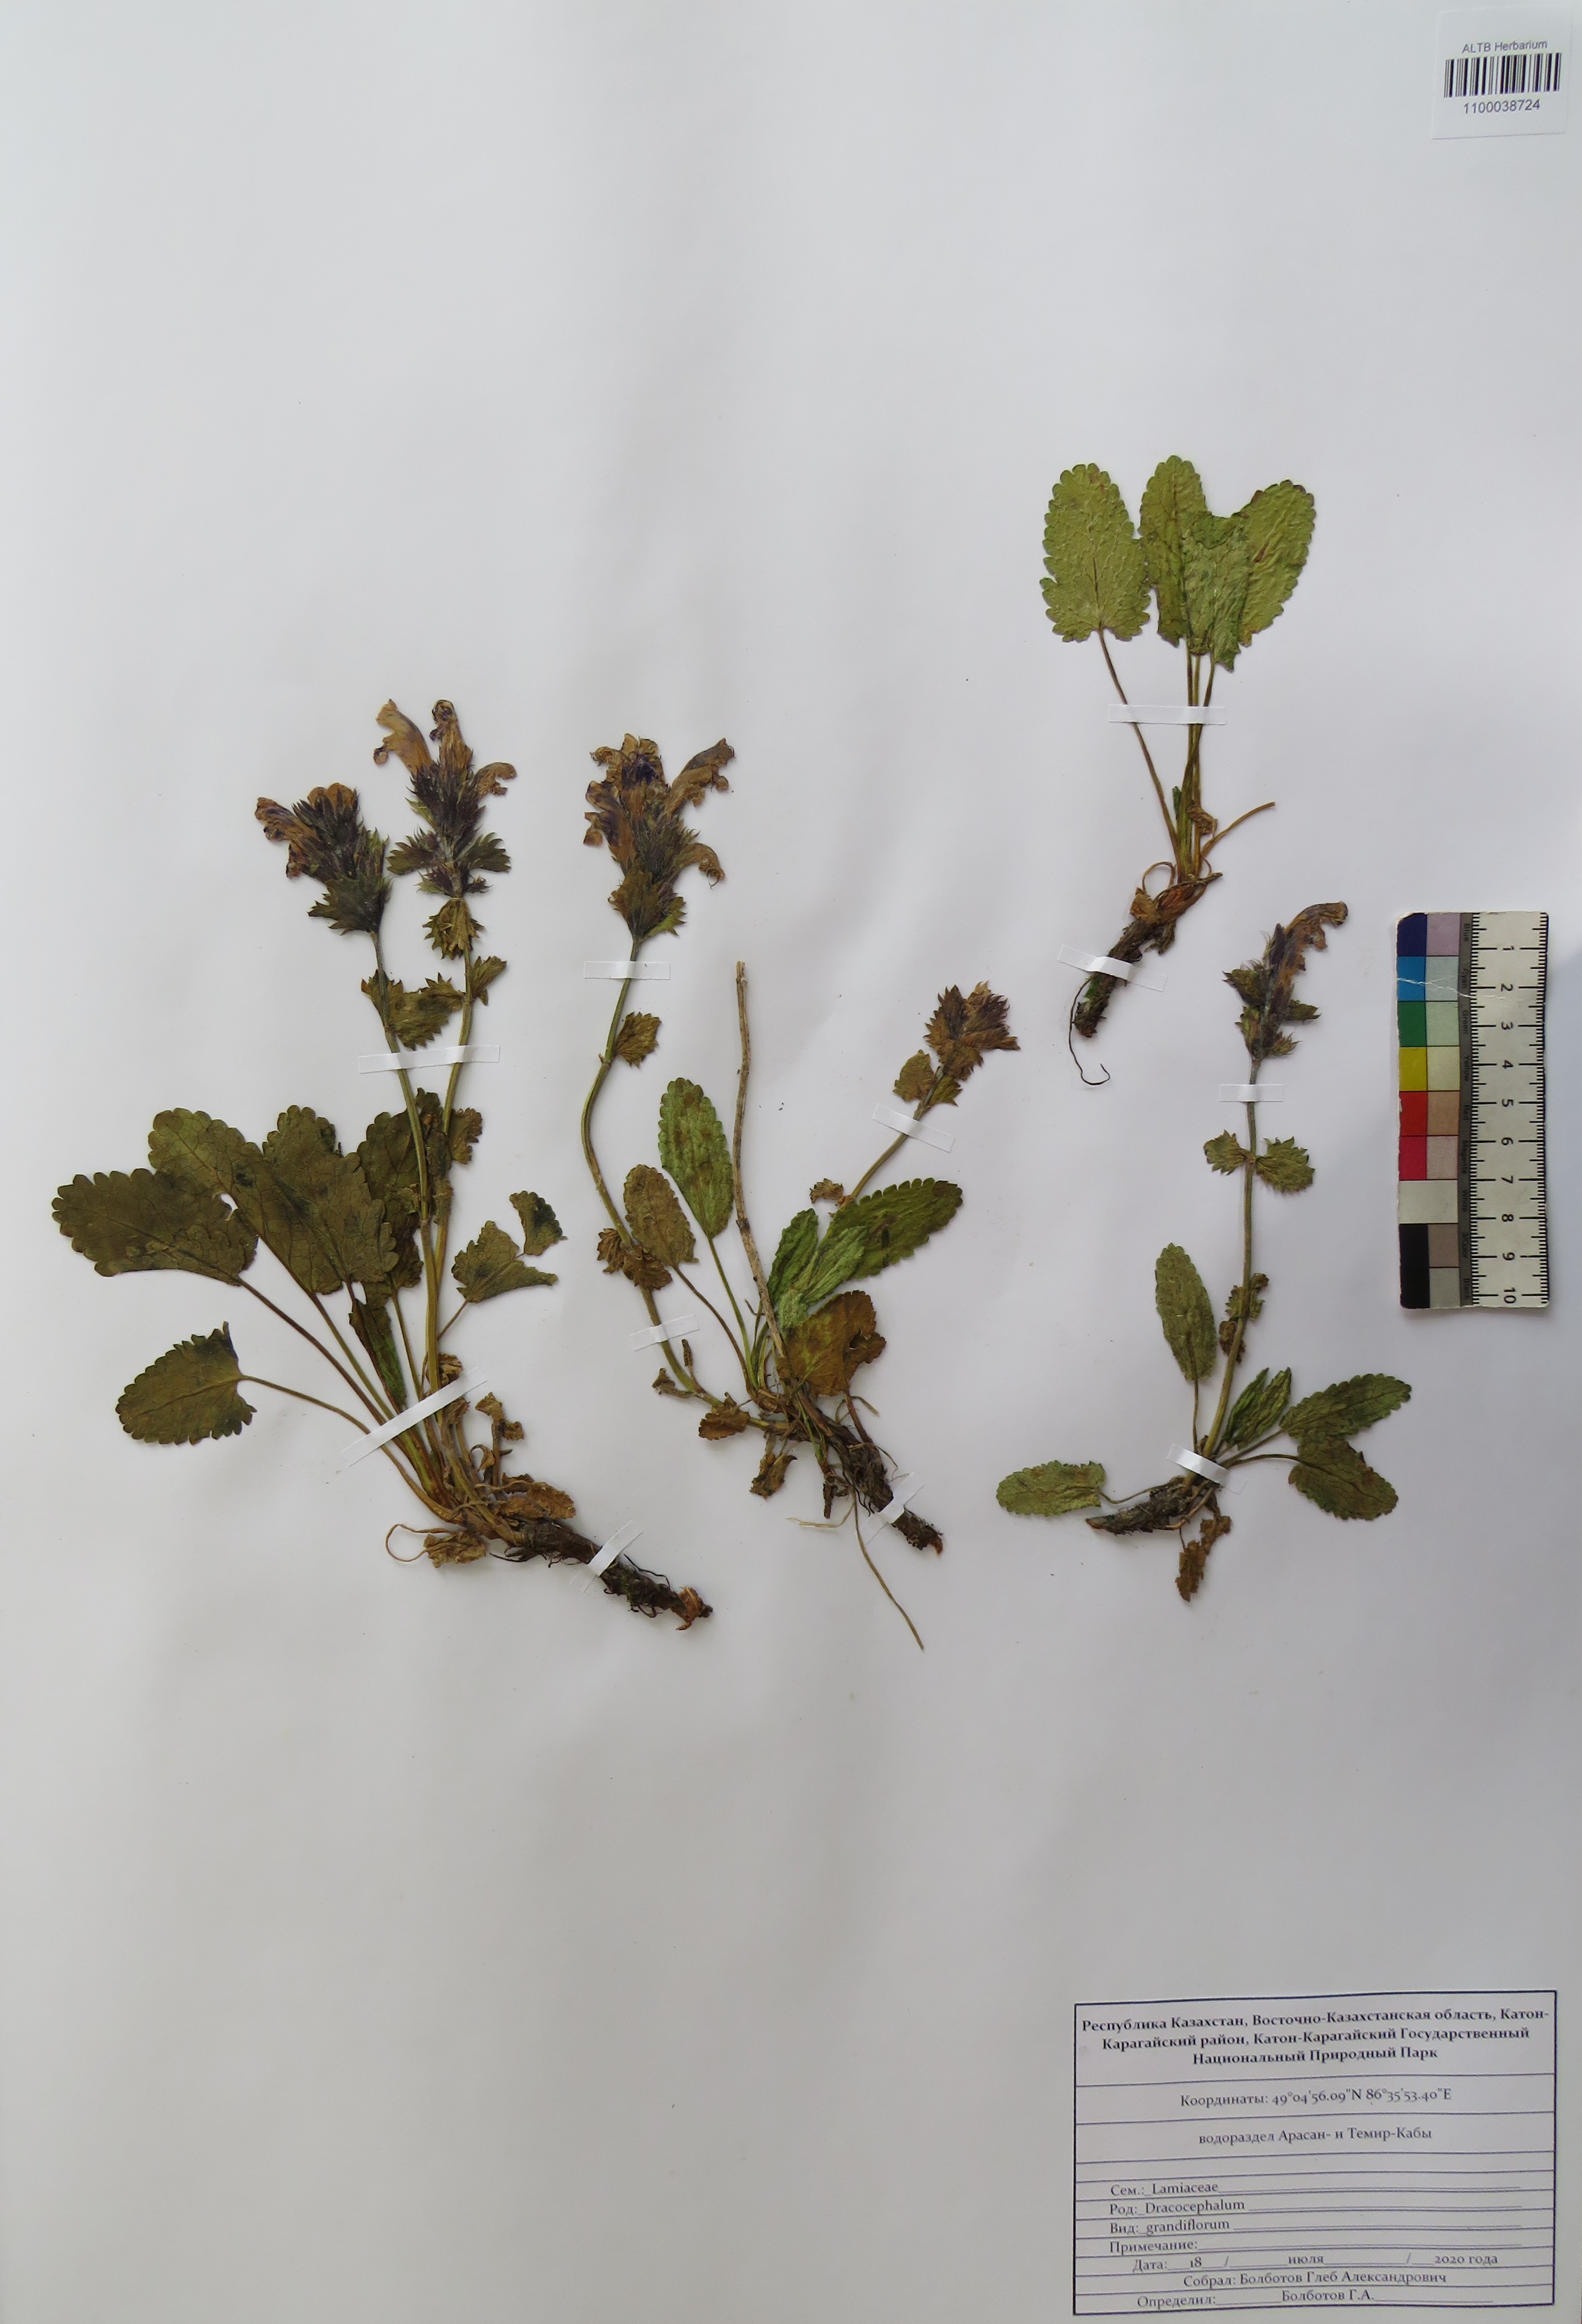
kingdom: Plantae
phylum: Tracheophyta
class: Magnoliopsida
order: Lamiales
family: Lamiaceae
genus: Dracocephalum
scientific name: Dracocephalum grandiflorum
